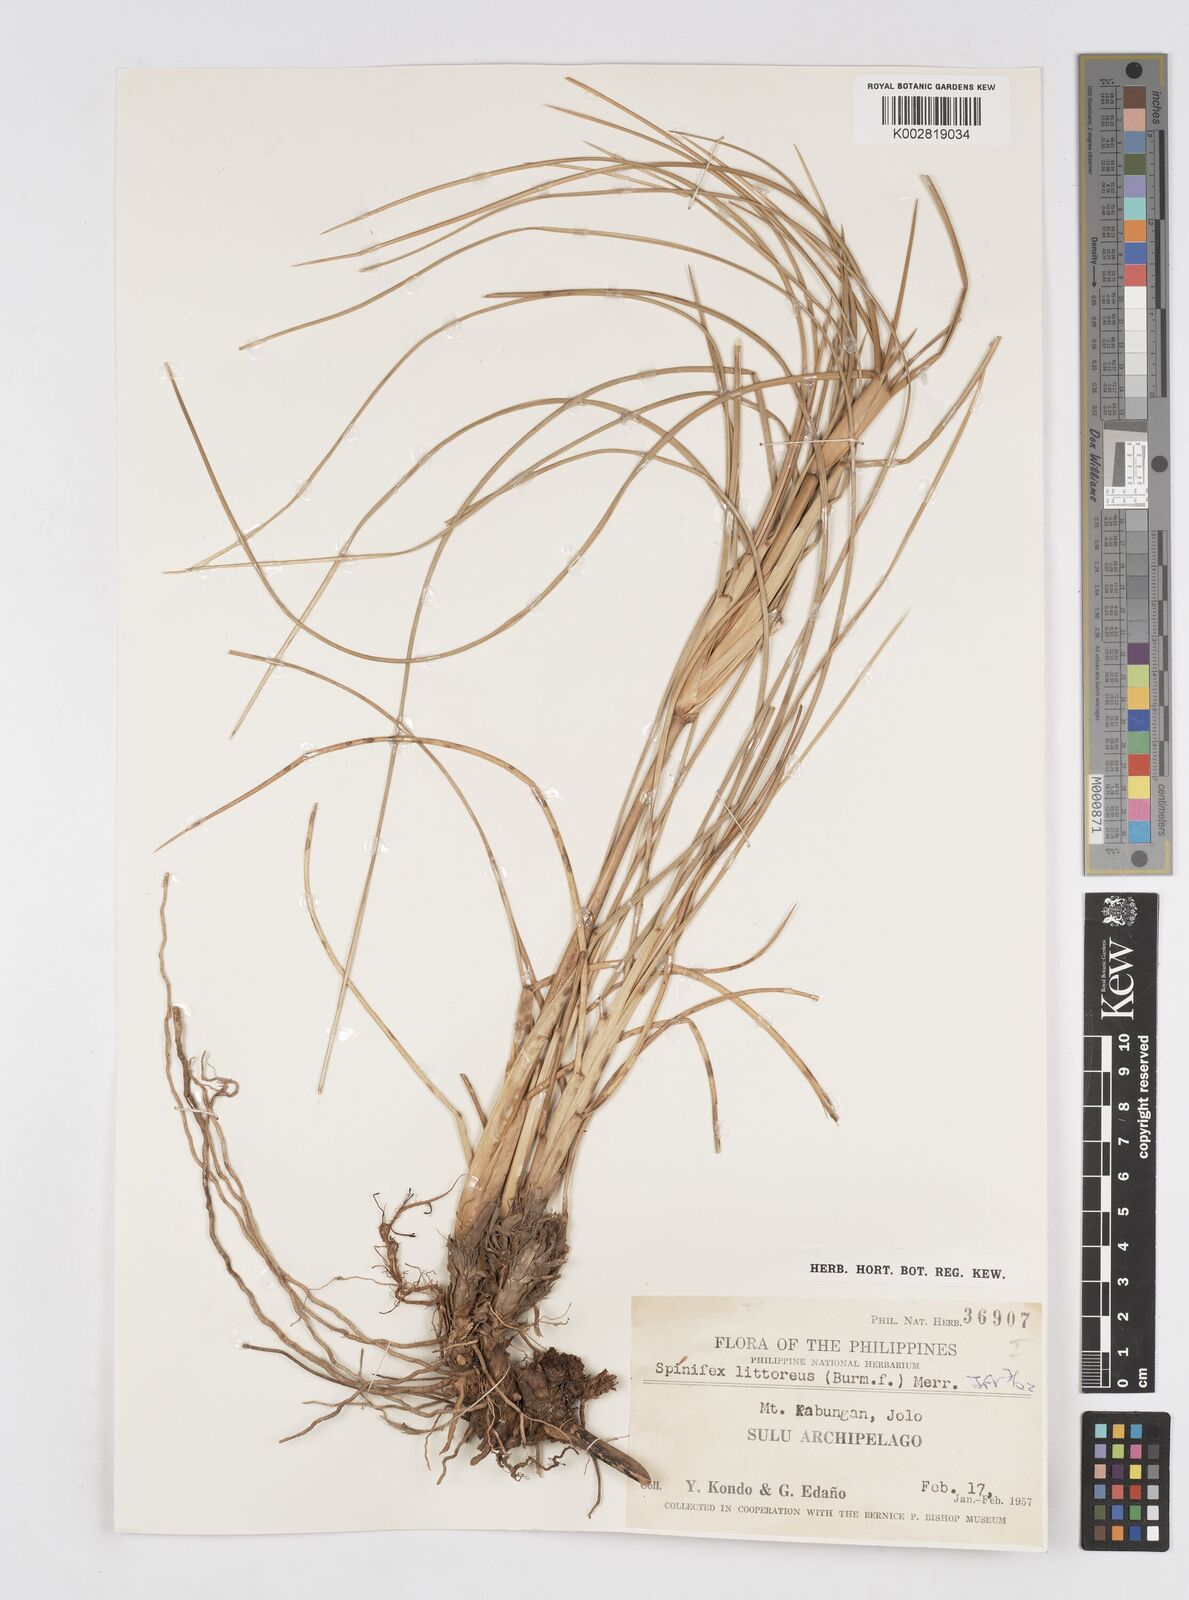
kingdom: Plantae
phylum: Tracheophyta
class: Liliopsida
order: Poales
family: Poaceae
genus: Spinifex
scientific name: Spinifex littoreus
